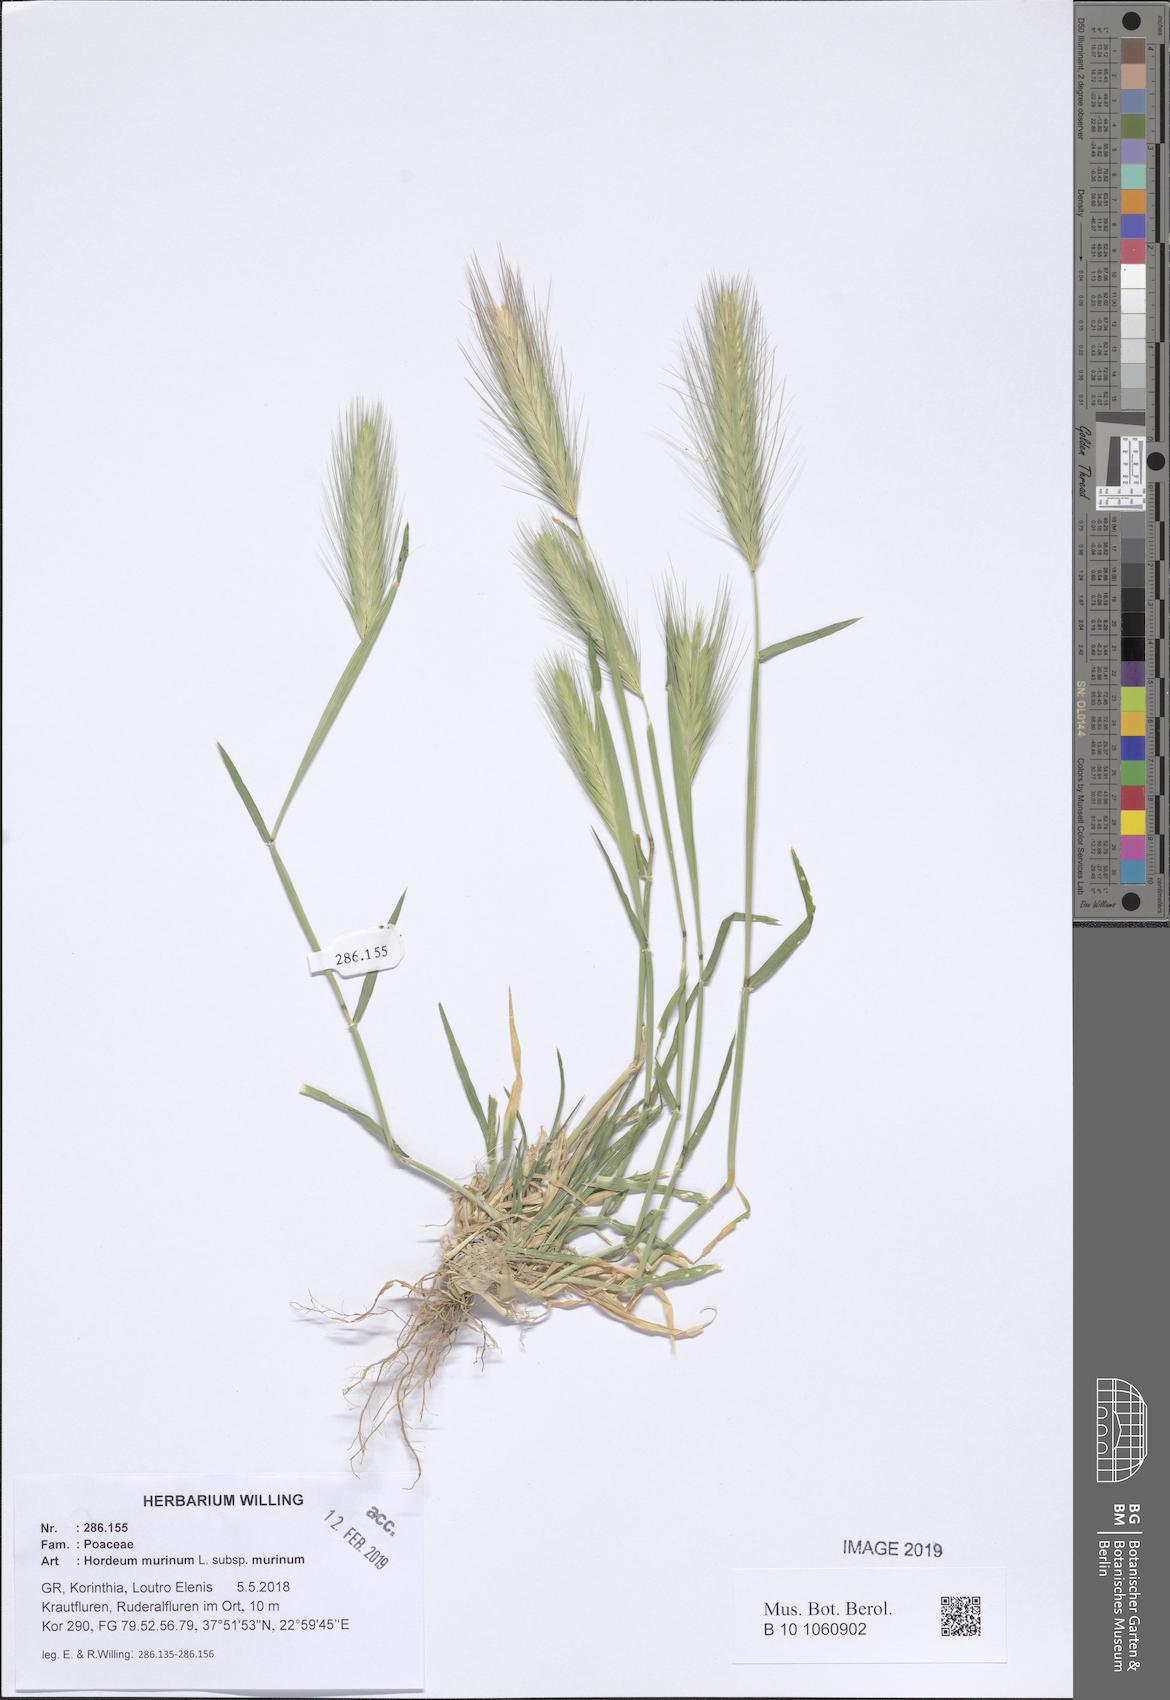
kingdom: Plantae
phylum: Tracheophyta
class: Liliopsida
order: Poales
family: Poaceae
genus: Hordeum
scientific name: Hordeum murinum
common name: Wall barley
